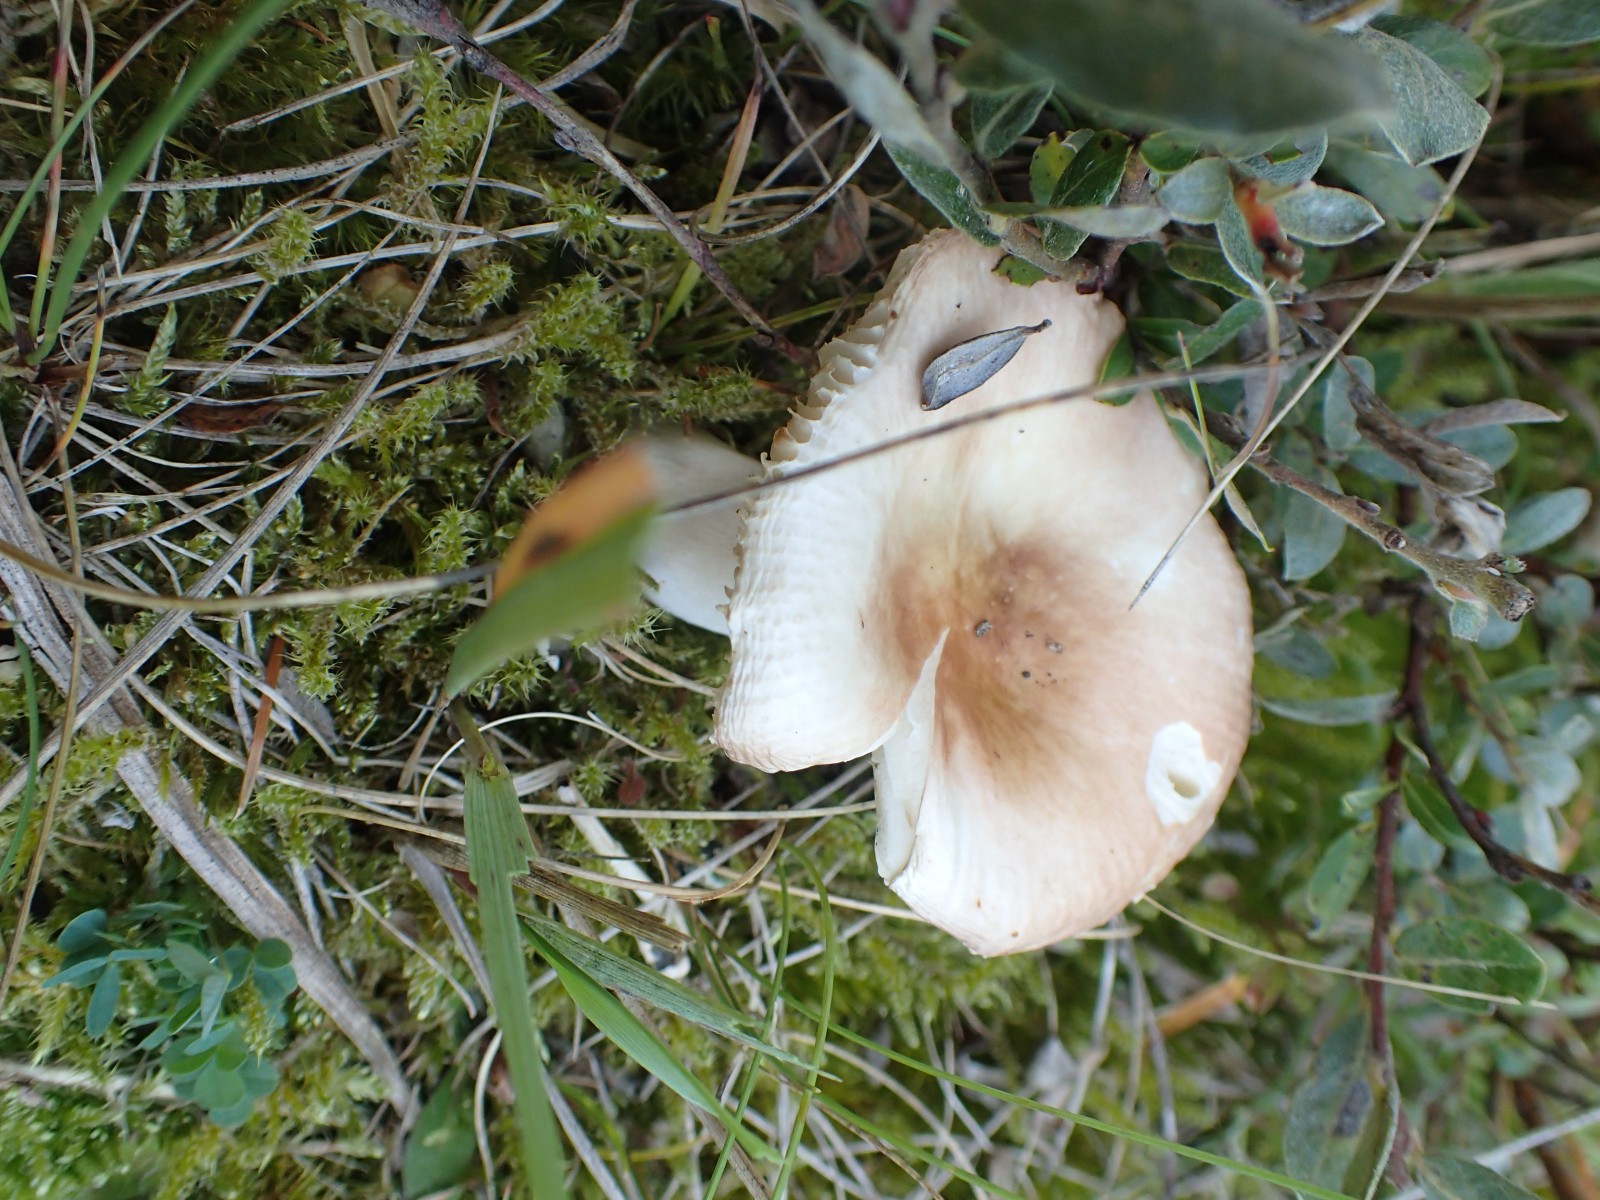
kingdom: Fungi
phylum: Basidiomycota
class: Agaricomycetes
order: Russulales
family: Russulaceae
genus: Russula
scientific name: Russula
